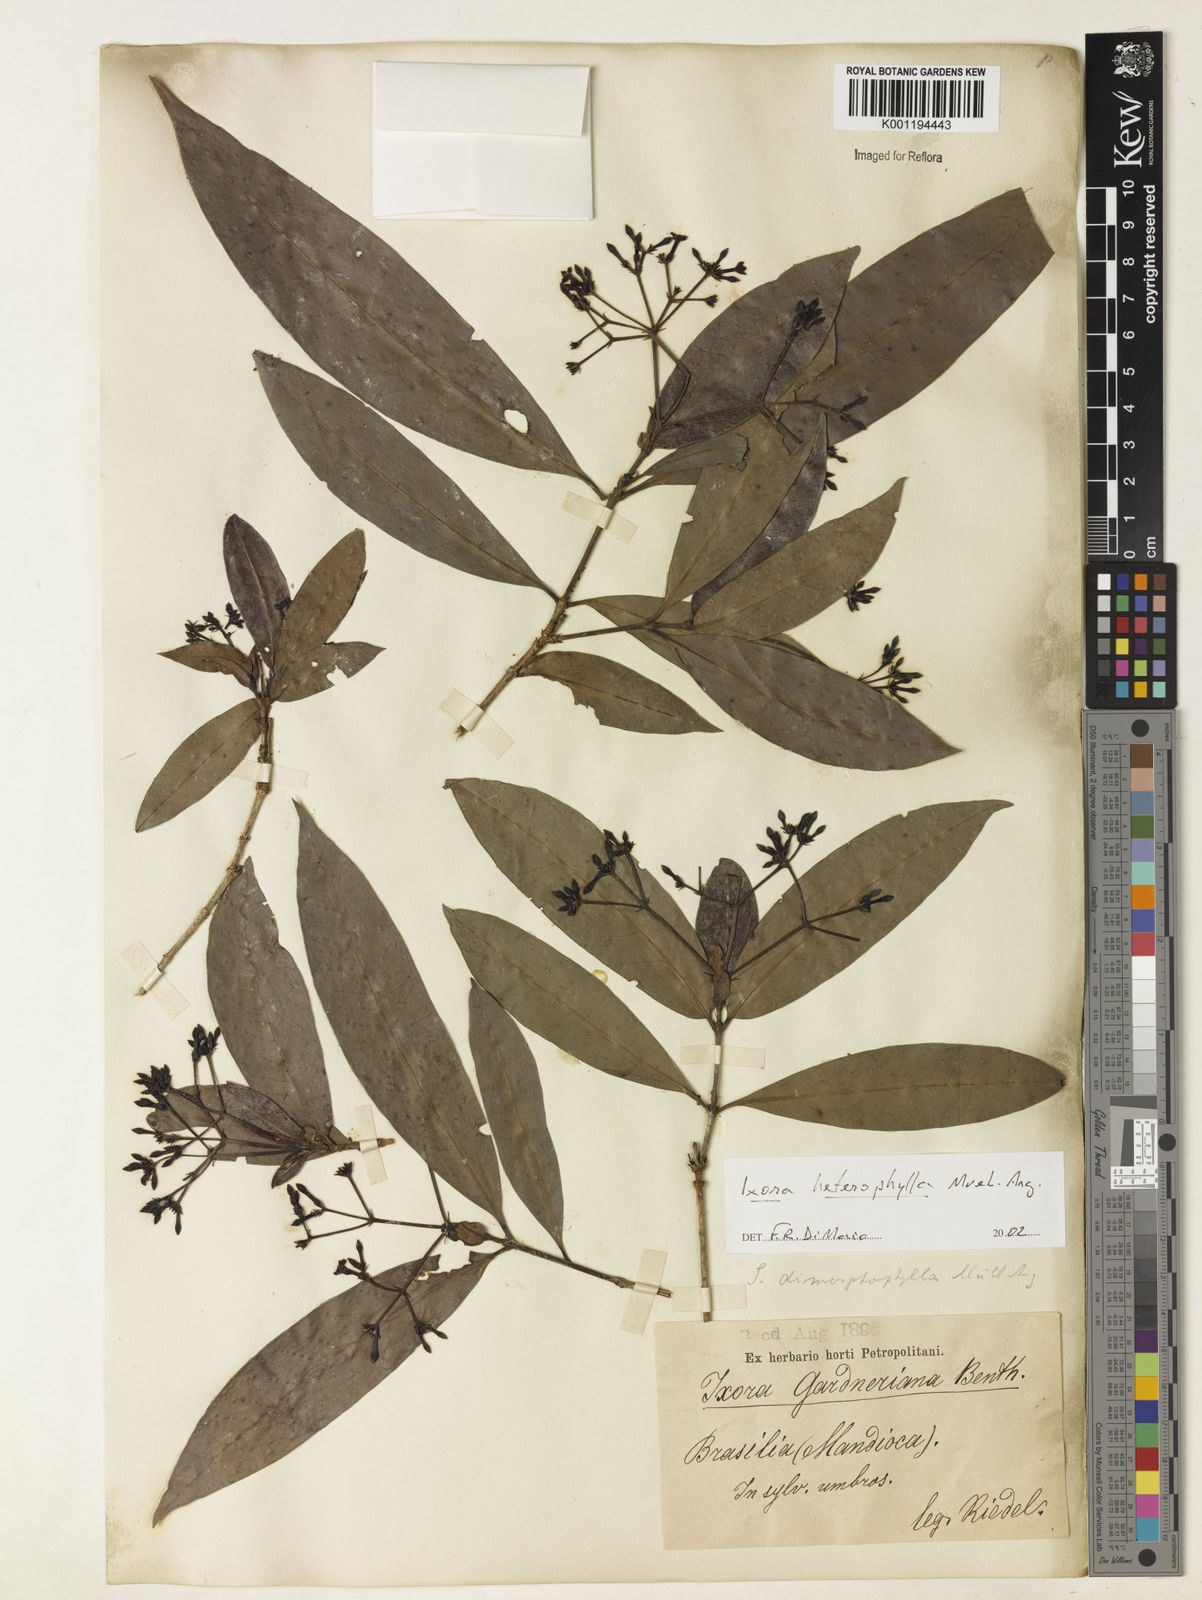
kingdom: Plantae
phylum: Tracheophyta
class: Magnoliopsida
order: Gentianales
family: Rubiaceae
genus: Ixora
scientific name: Ixora
